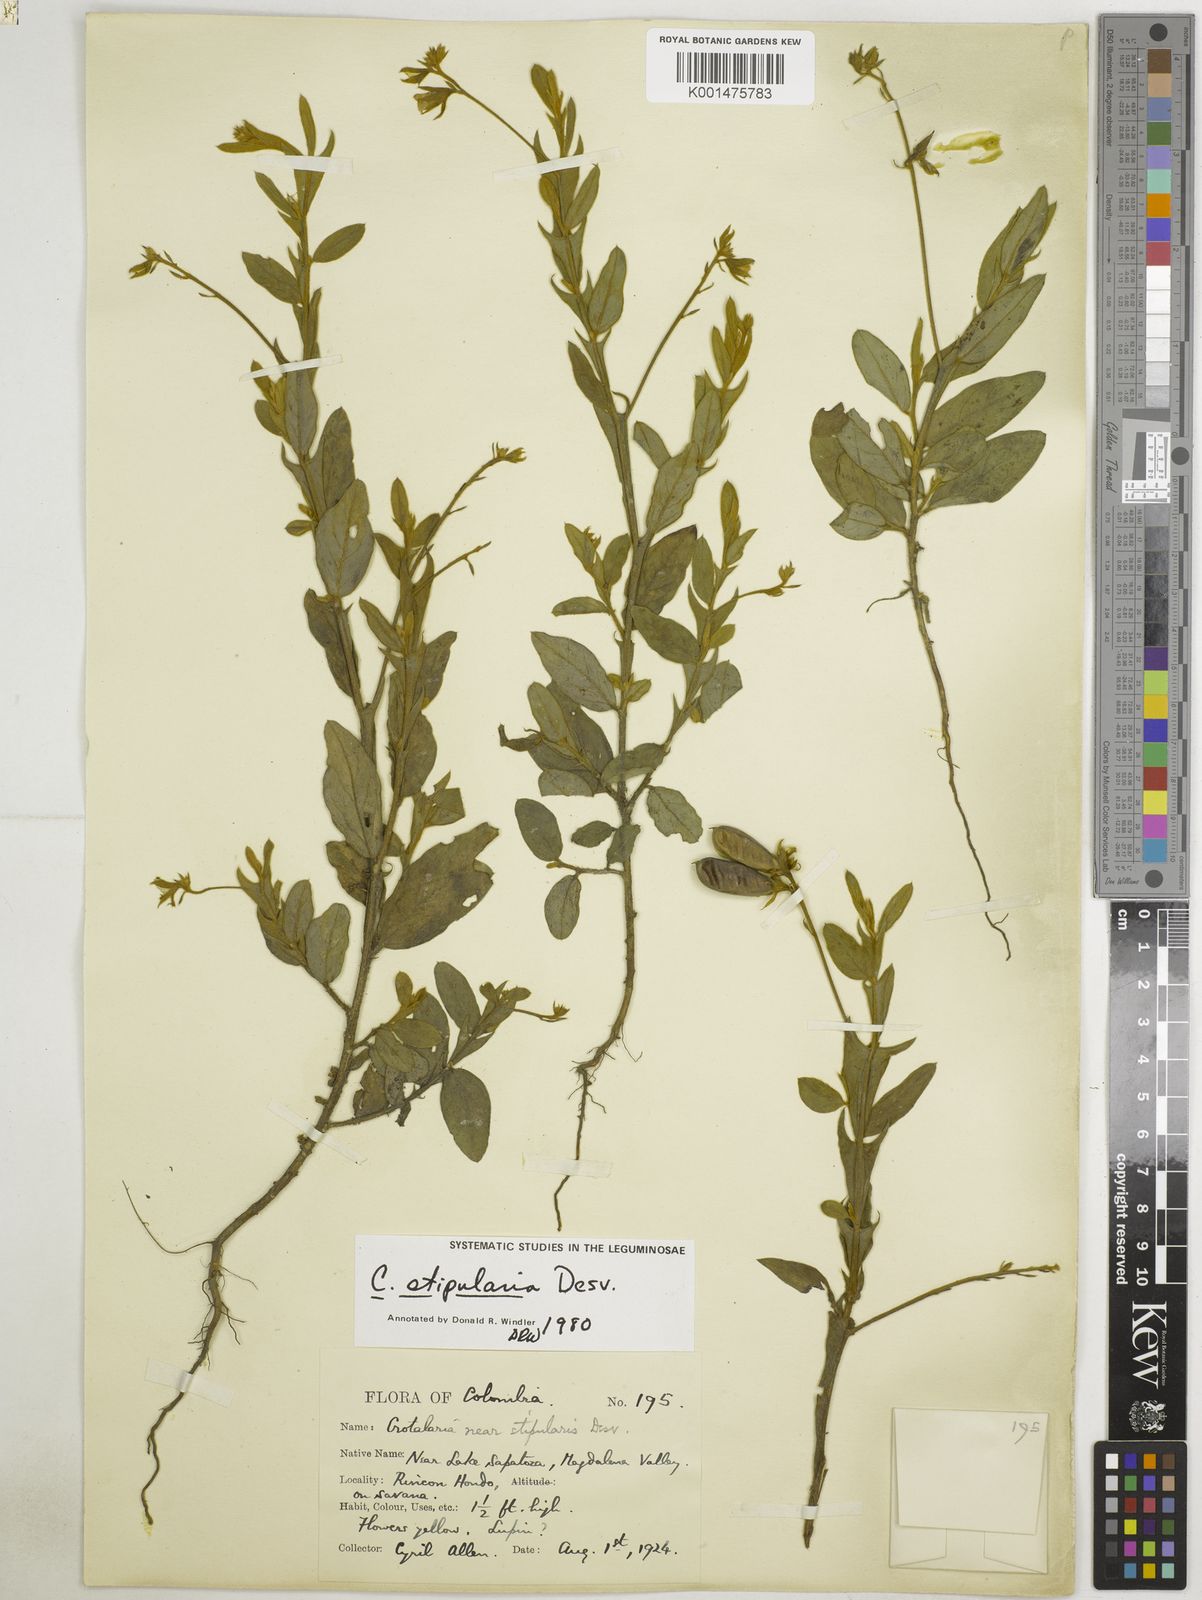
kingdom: Plantae
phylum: Tracheophyta
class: Magnoliopsida
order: Fabales
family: Fabaceae
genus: Crotalaria
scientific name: Crotalaria stipularia
